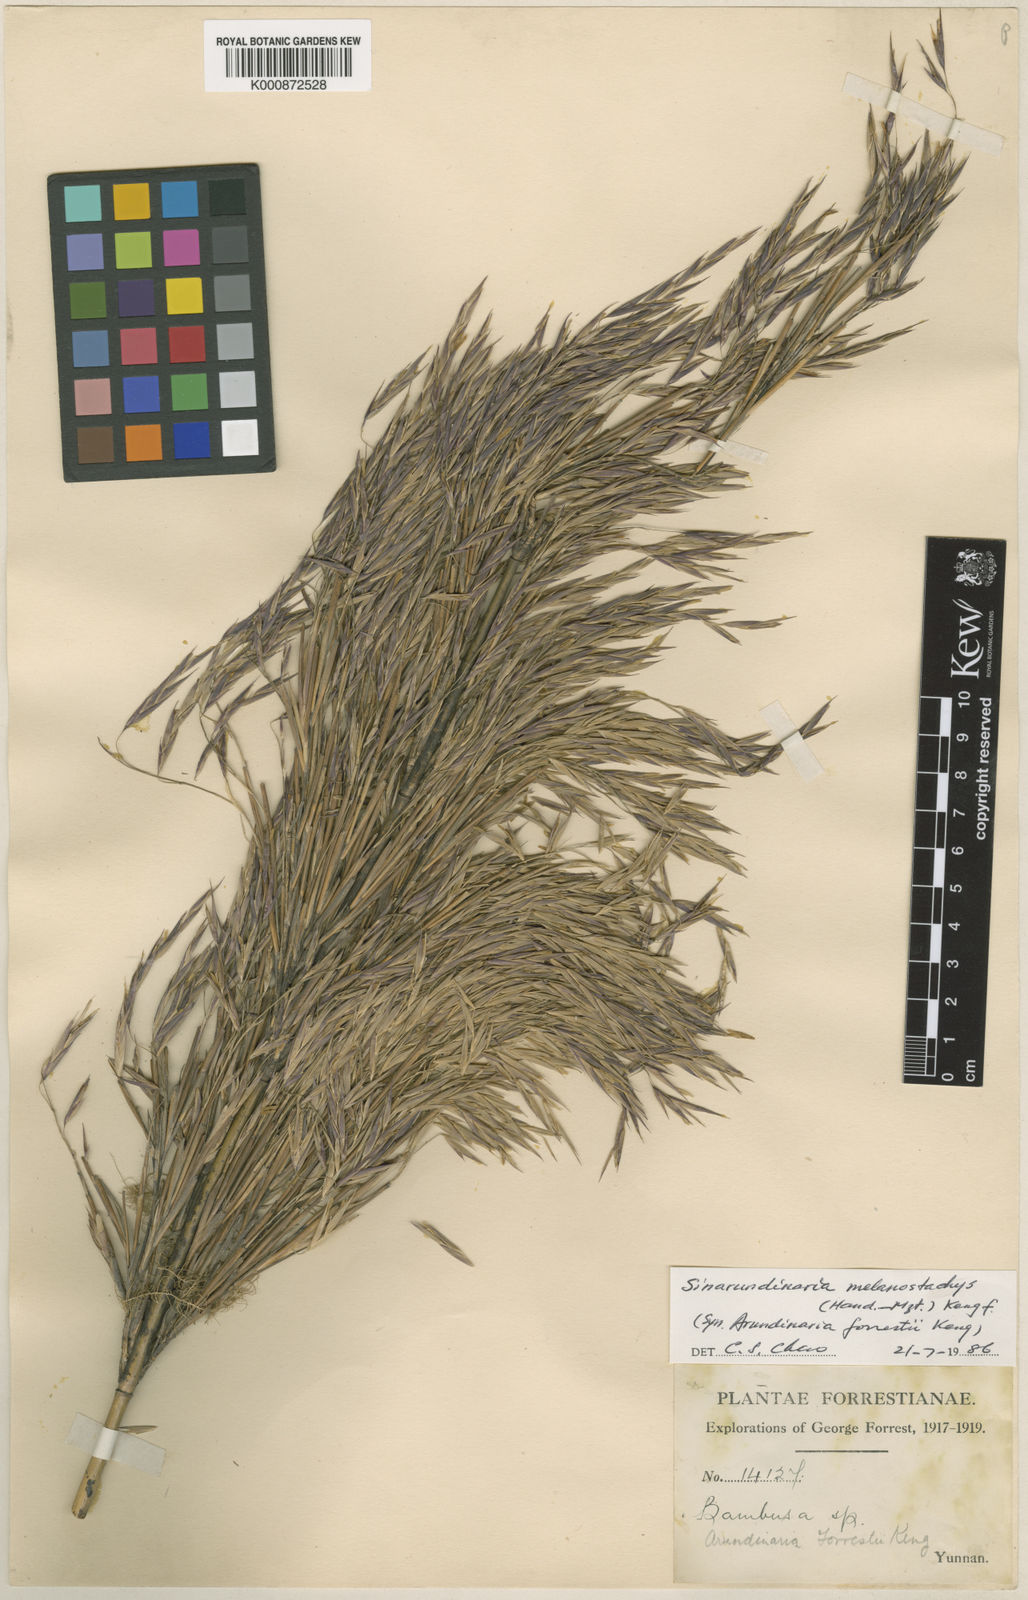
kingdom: Plantae
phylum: Tracheophyta
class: Liliopsida
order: Poales
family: Poaceae
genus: Fargesia
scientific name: Fargesia melanostachys
